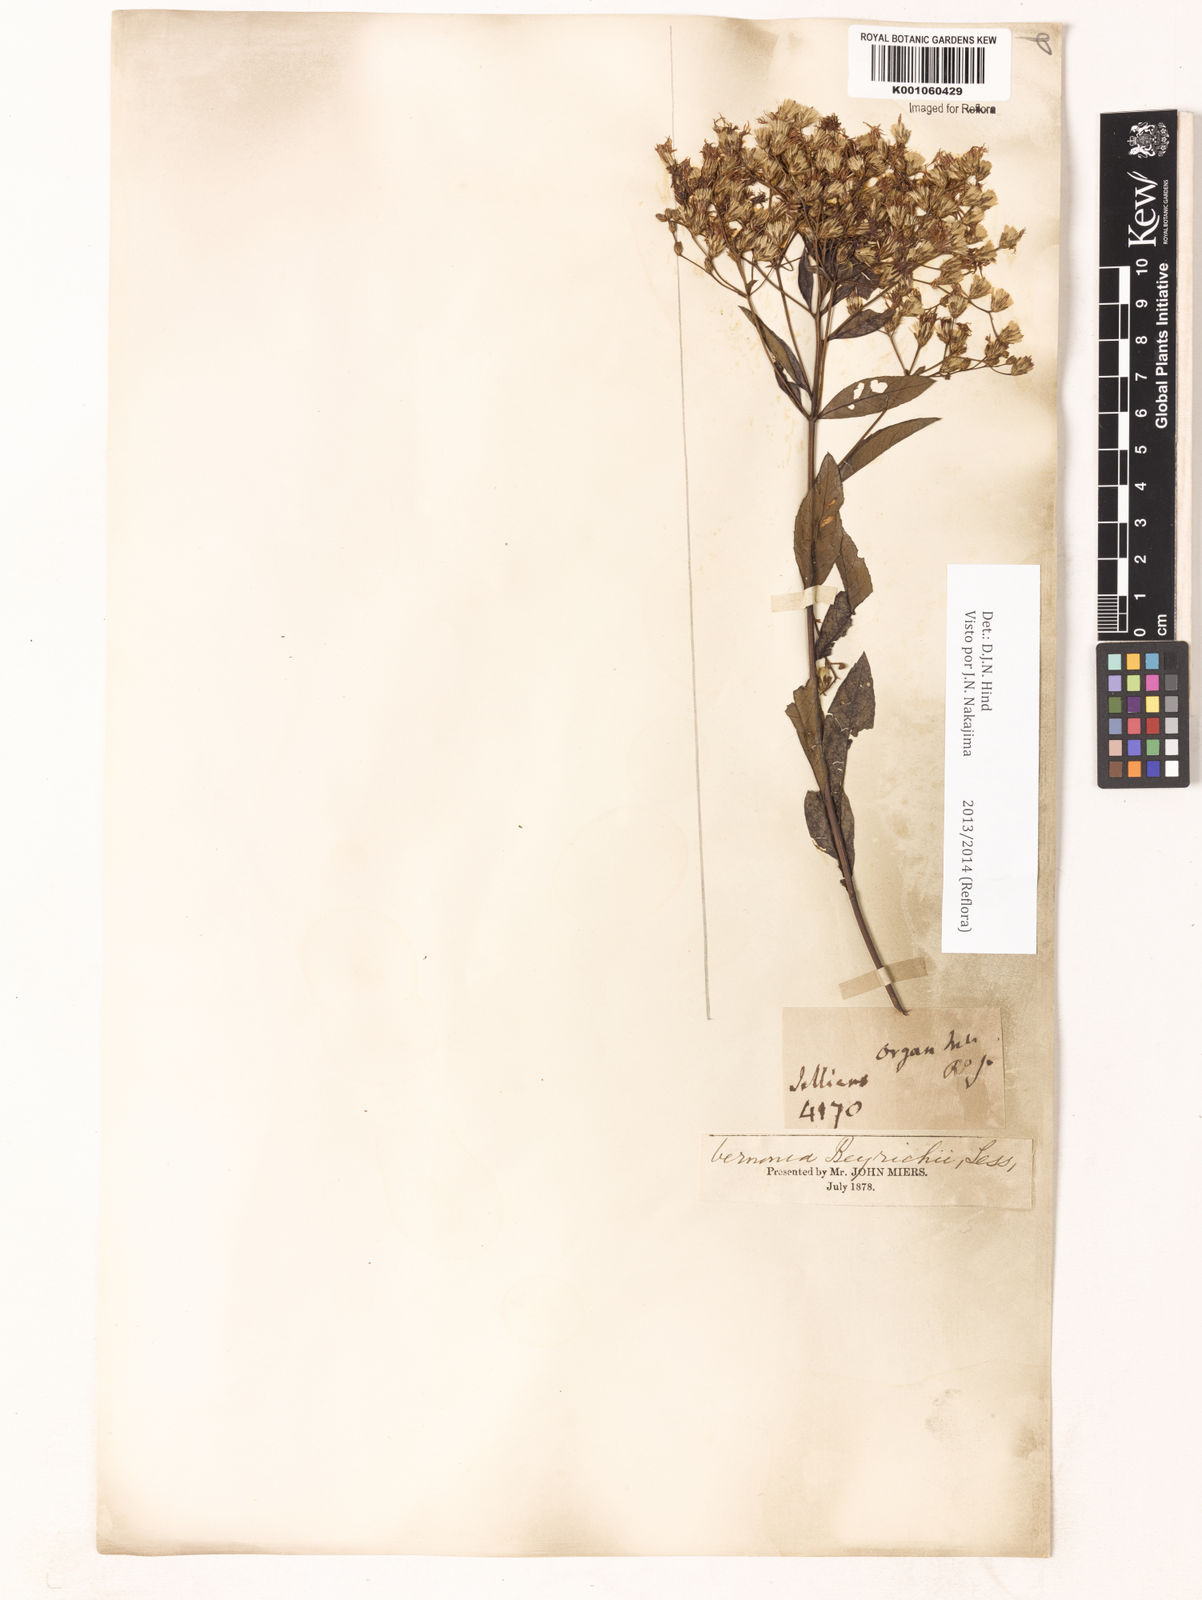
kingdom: Plantae
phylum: Tracheophyta
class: Magnoliopsida
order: Asterales
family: Asteraceae
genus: Vernonanthura
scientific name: Vernonanthura beyrichii
